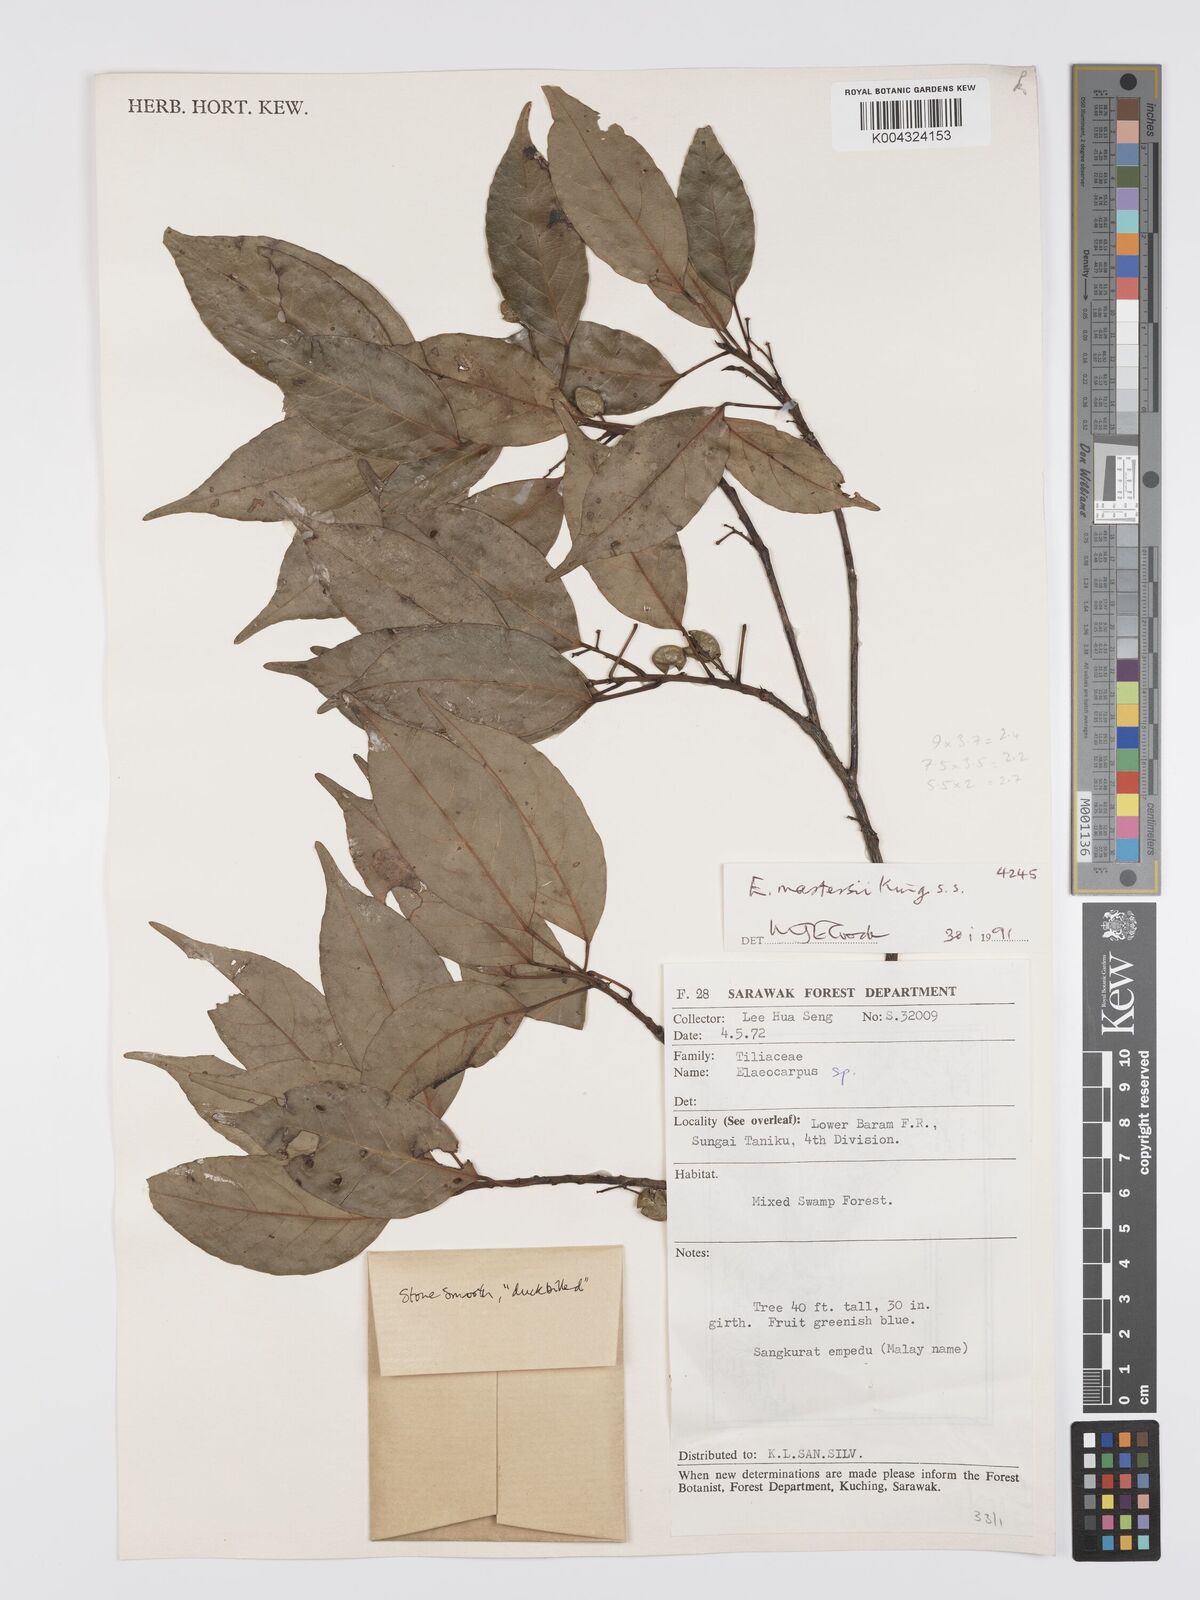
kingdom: Plantae
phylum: Tracheophyta
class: Magnoliopsida
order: Oxalidales
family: Elaeocarpaceae
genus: Elaeocarpus
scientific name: Elaeocarpus mastersii
